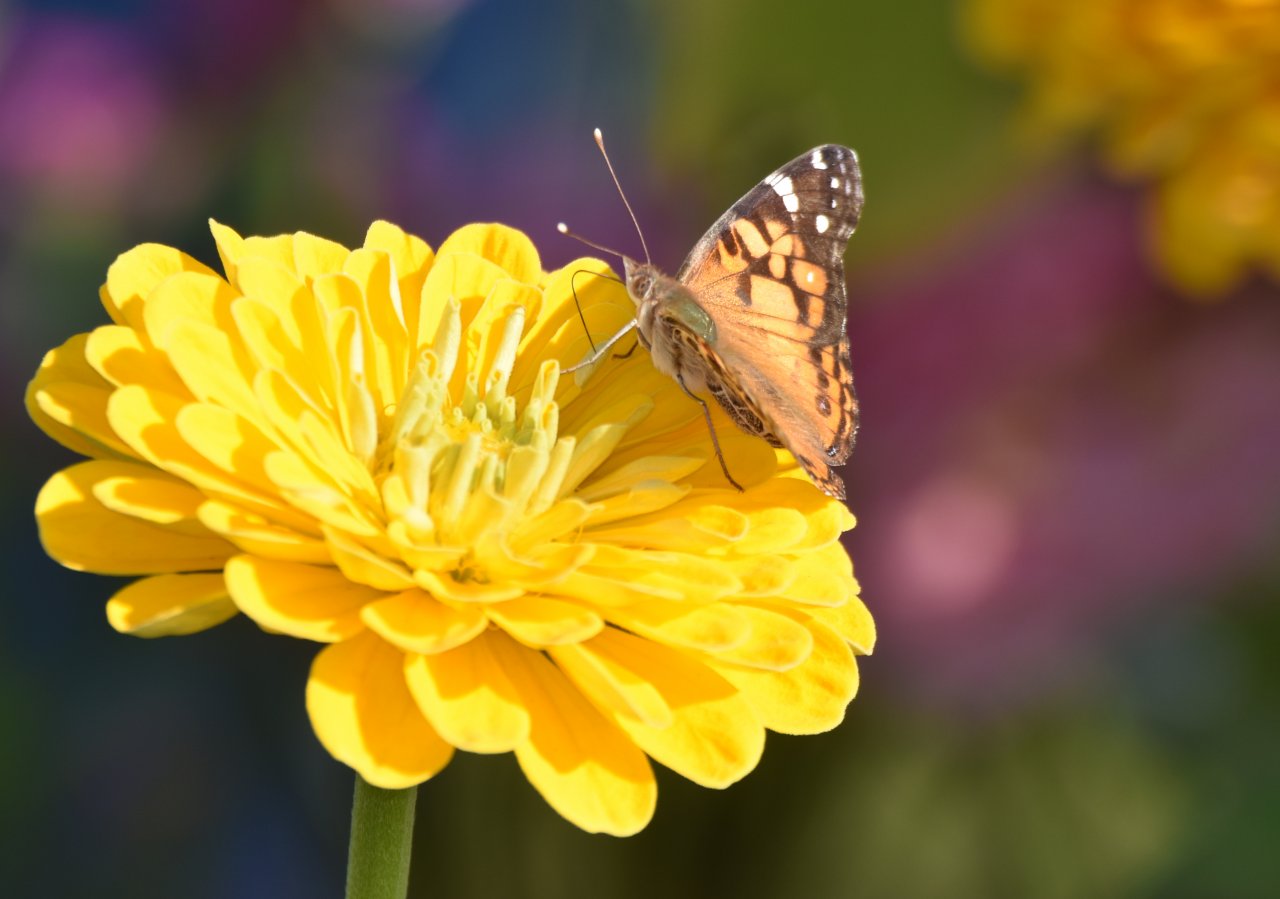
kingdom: Animalia
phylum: Arthropoda
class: Insecta
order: Lepidoptera
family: Nymphalidae
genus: Vanessa
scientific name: Vanessa virginiensis
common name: American Lady
